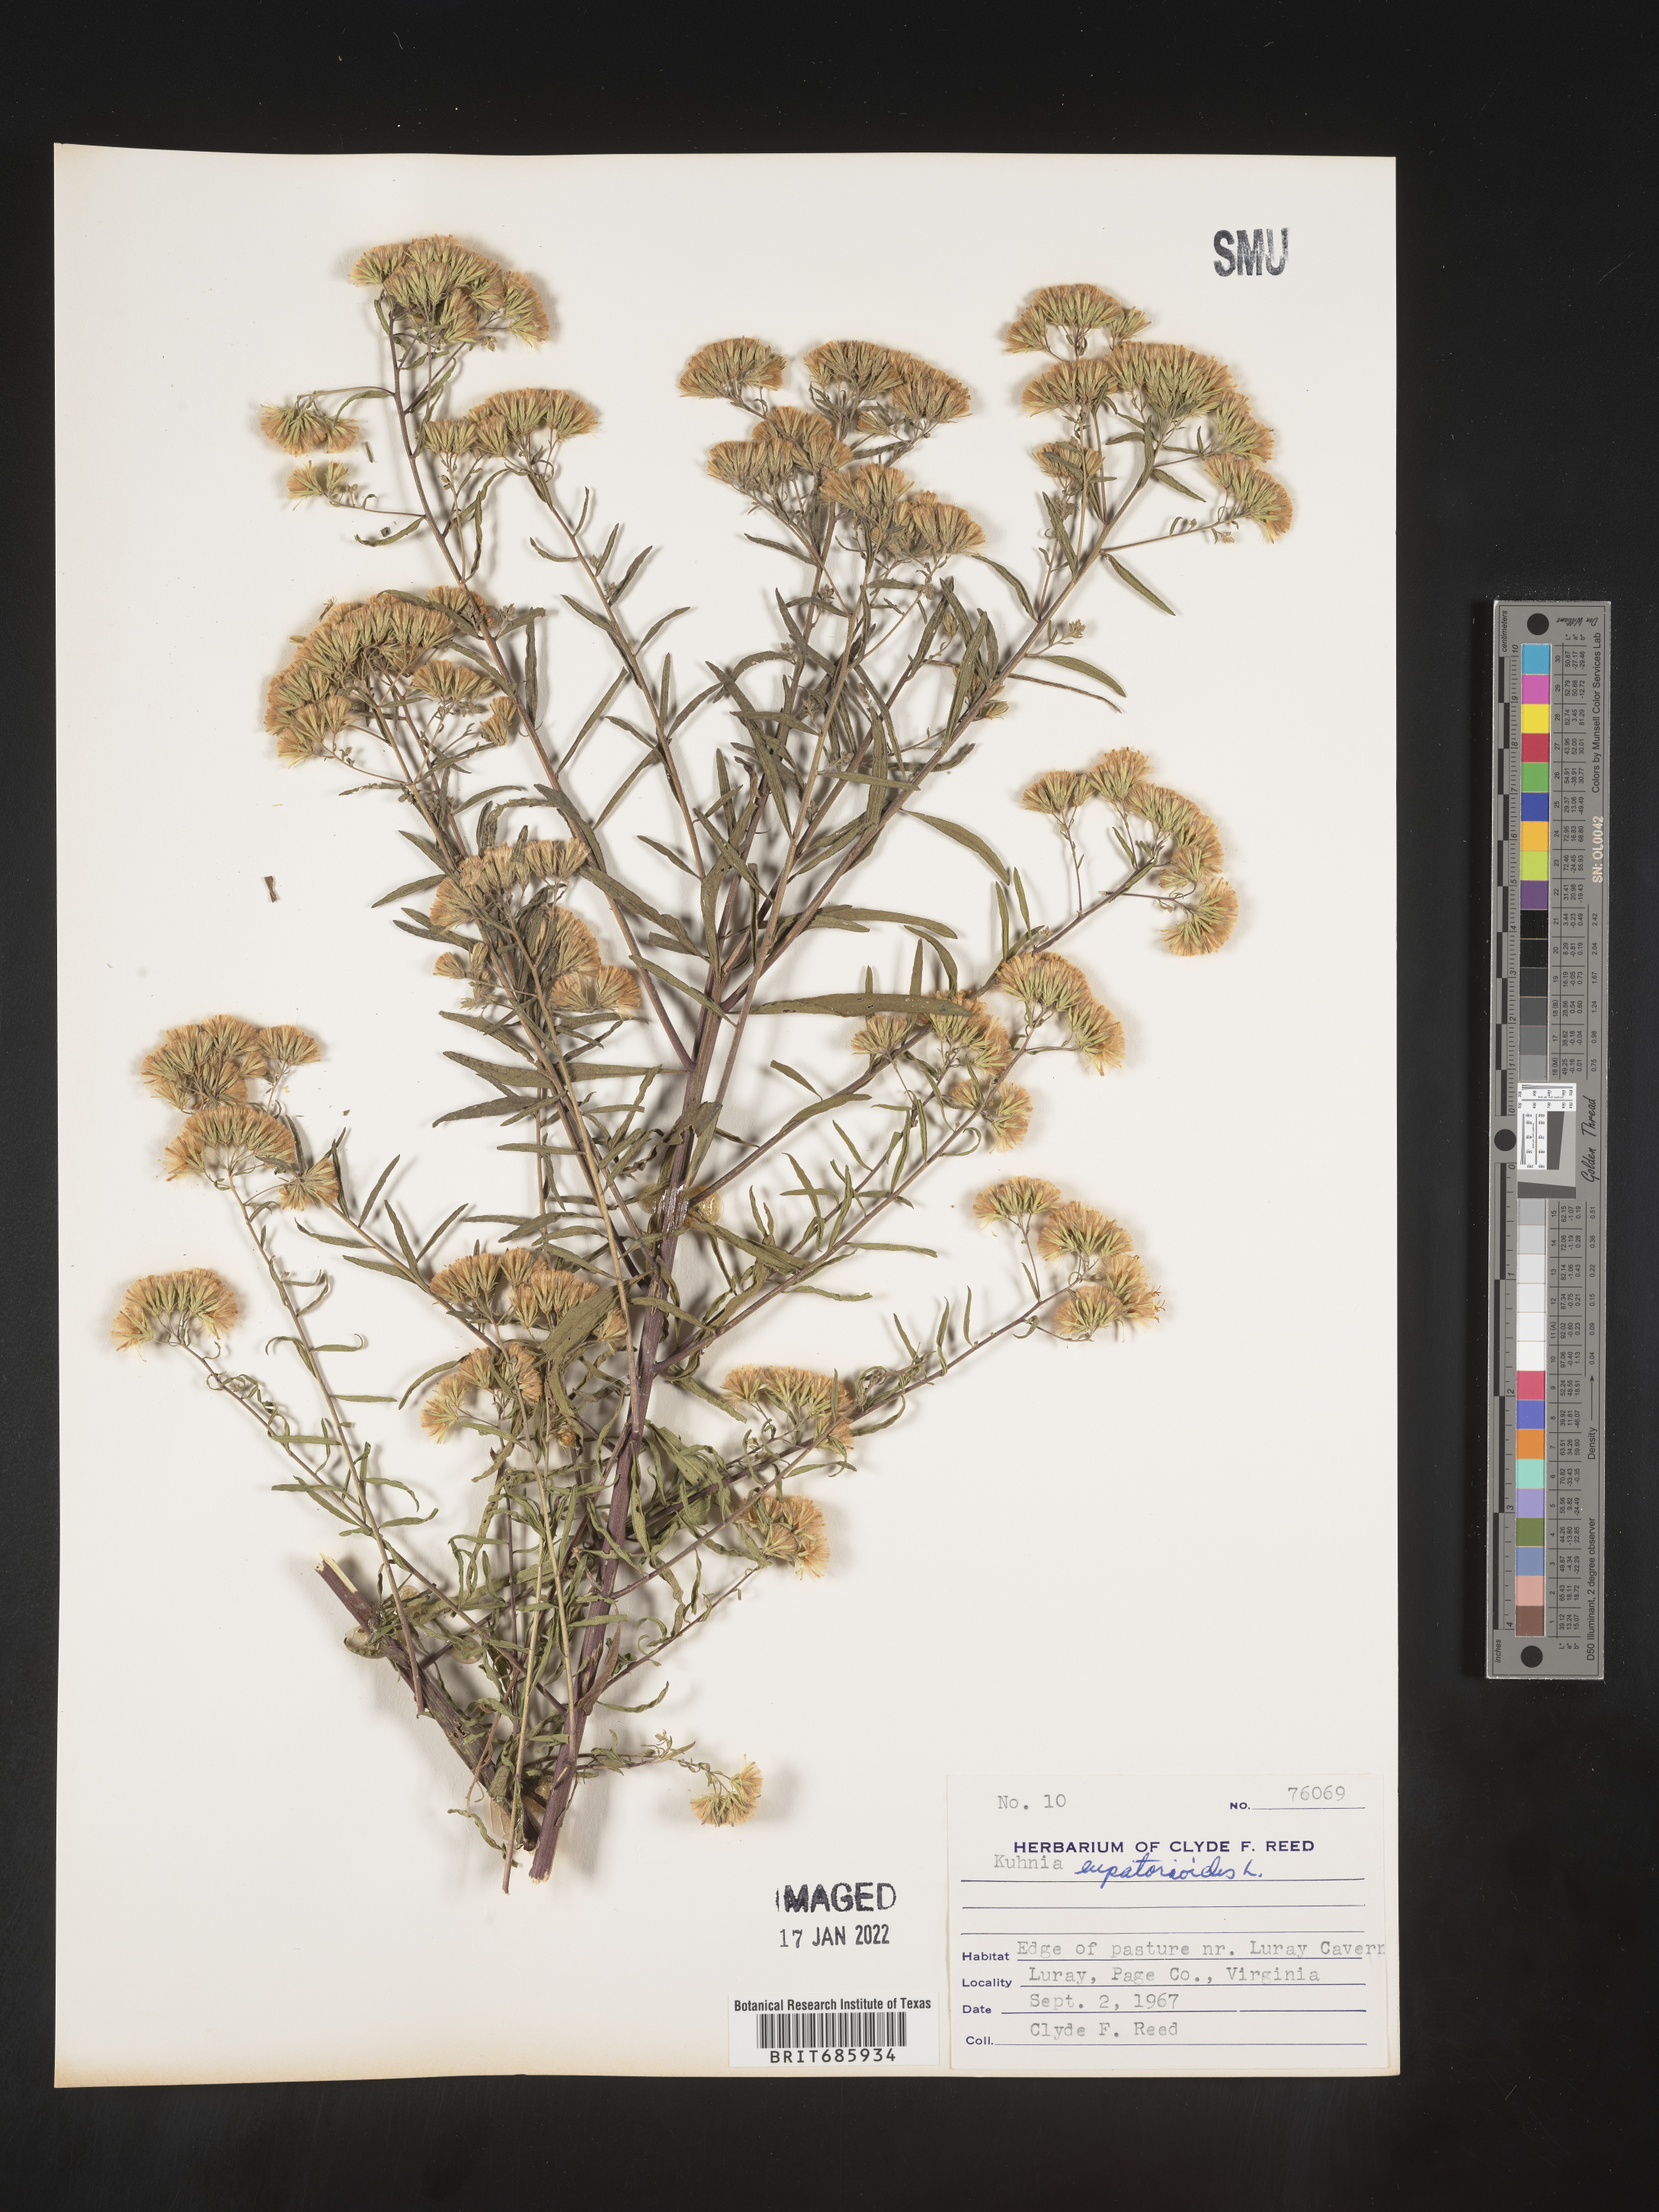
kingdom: Plantae
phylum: Tracheophyta
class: Magnoliopsida
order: Asterales
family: Asteraceae
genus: Brickellia
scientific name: Brickellia eupatorioides
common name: False boneset
